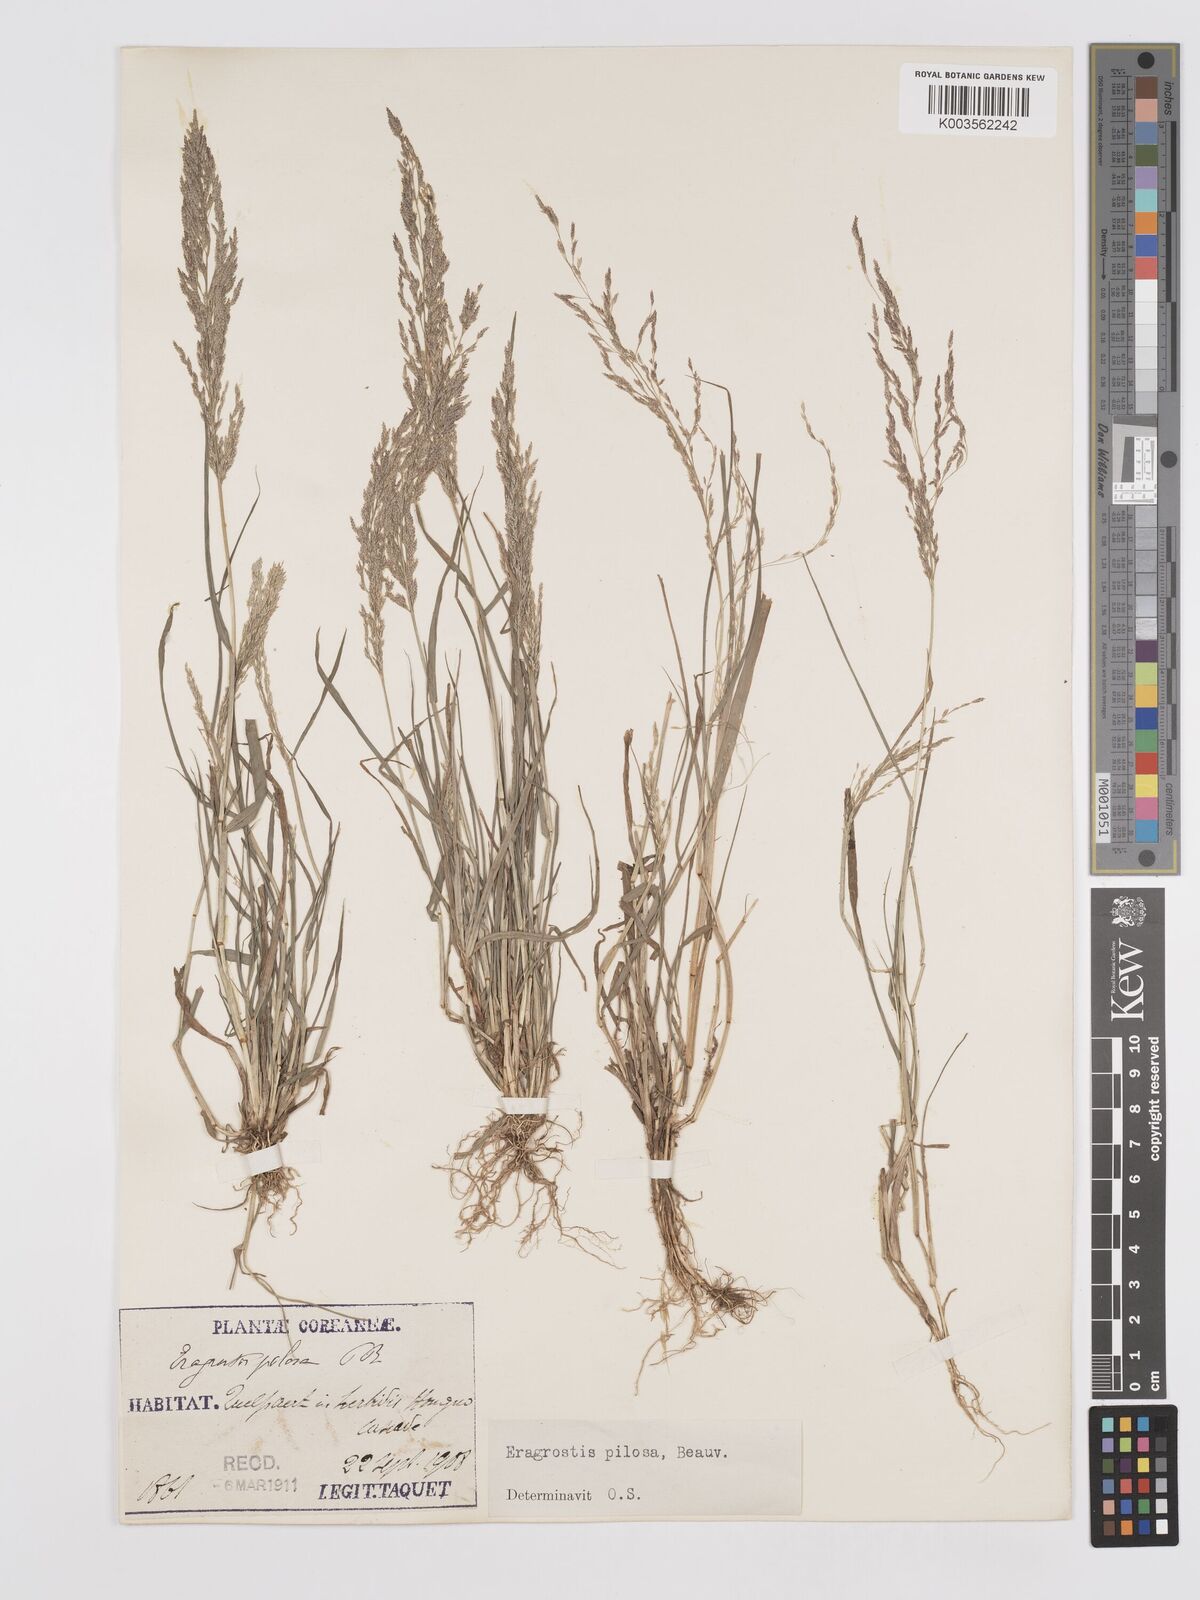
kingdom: Plantae
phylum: Tracheophyta
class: Liliopsida
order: Poales
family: Poaceae
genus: Eragrostis
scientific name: Eragrostis pilosa
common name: Indian lovegrass
